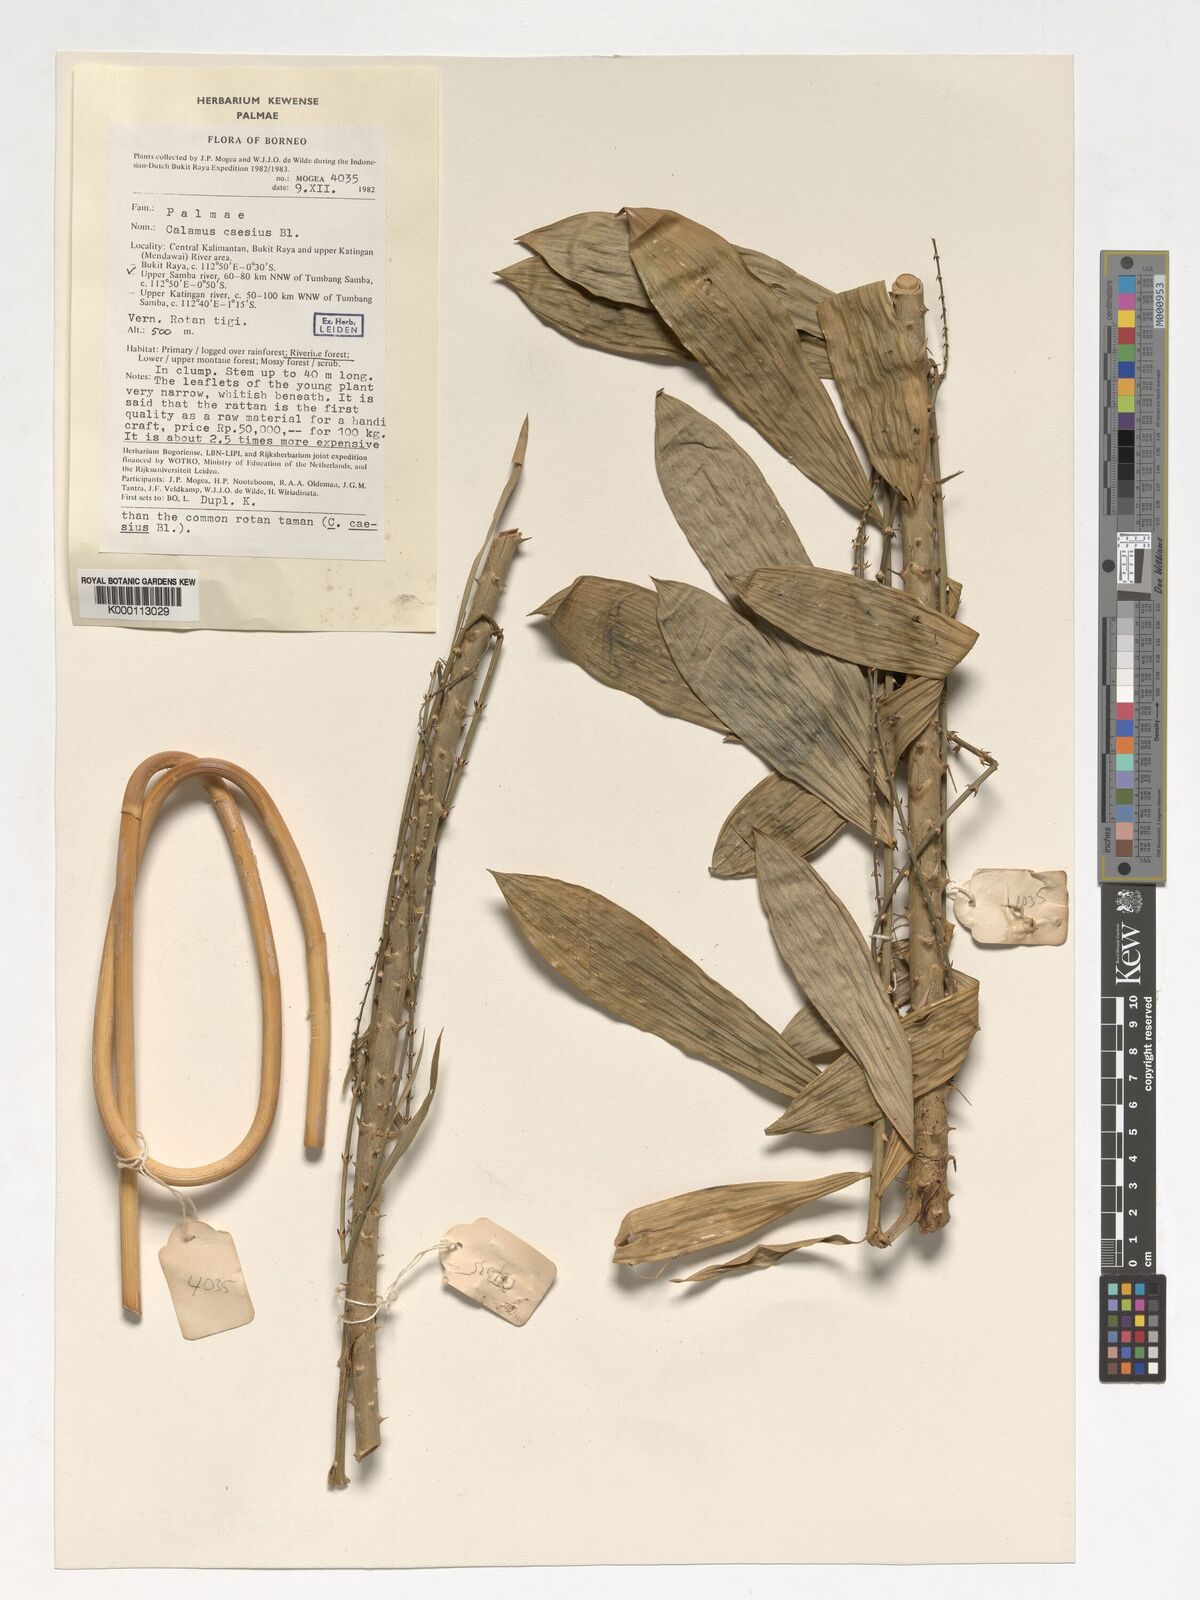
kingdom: Plantae
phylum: Tracheophyta
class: Liliopsida
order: Arecales
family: Arecaceae
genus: Calamus
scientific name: Calamus caesius
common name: Rattan palm
